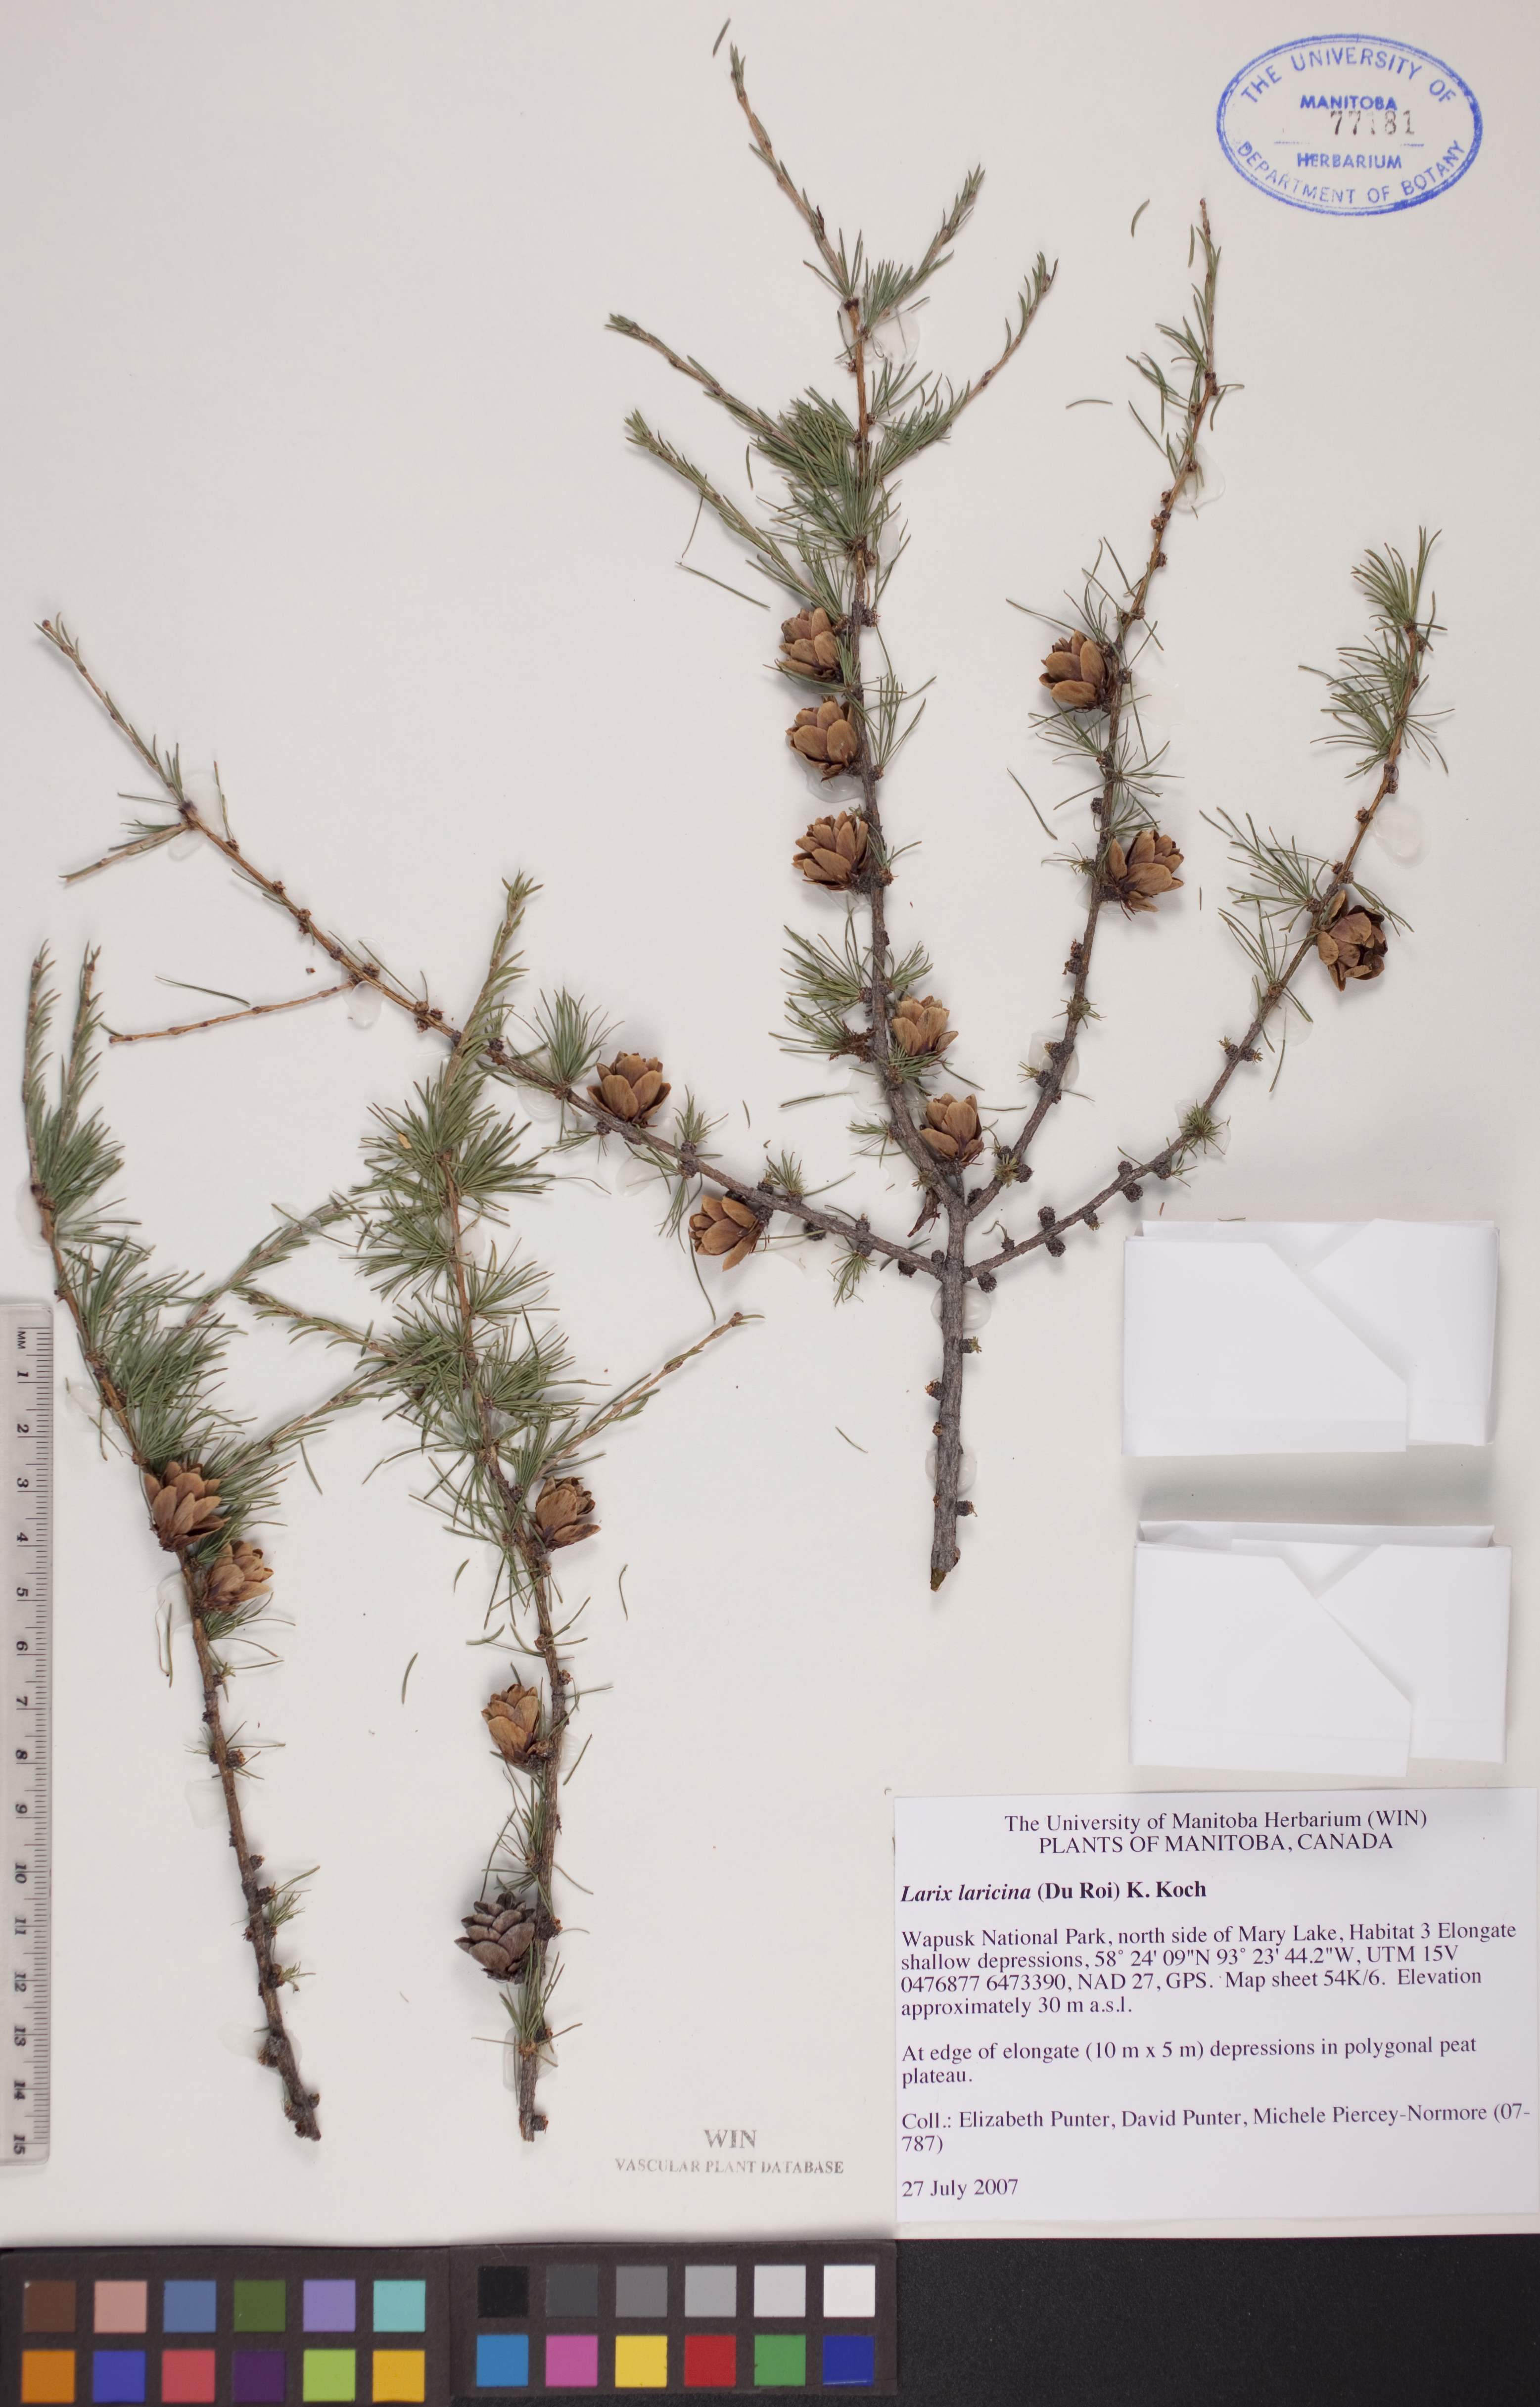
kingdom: Plantae
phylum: Tracheophyta
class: Pinopsida
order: Pinales
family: Pinaceae
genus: Larix
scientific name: Larix laricina
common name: American larch
